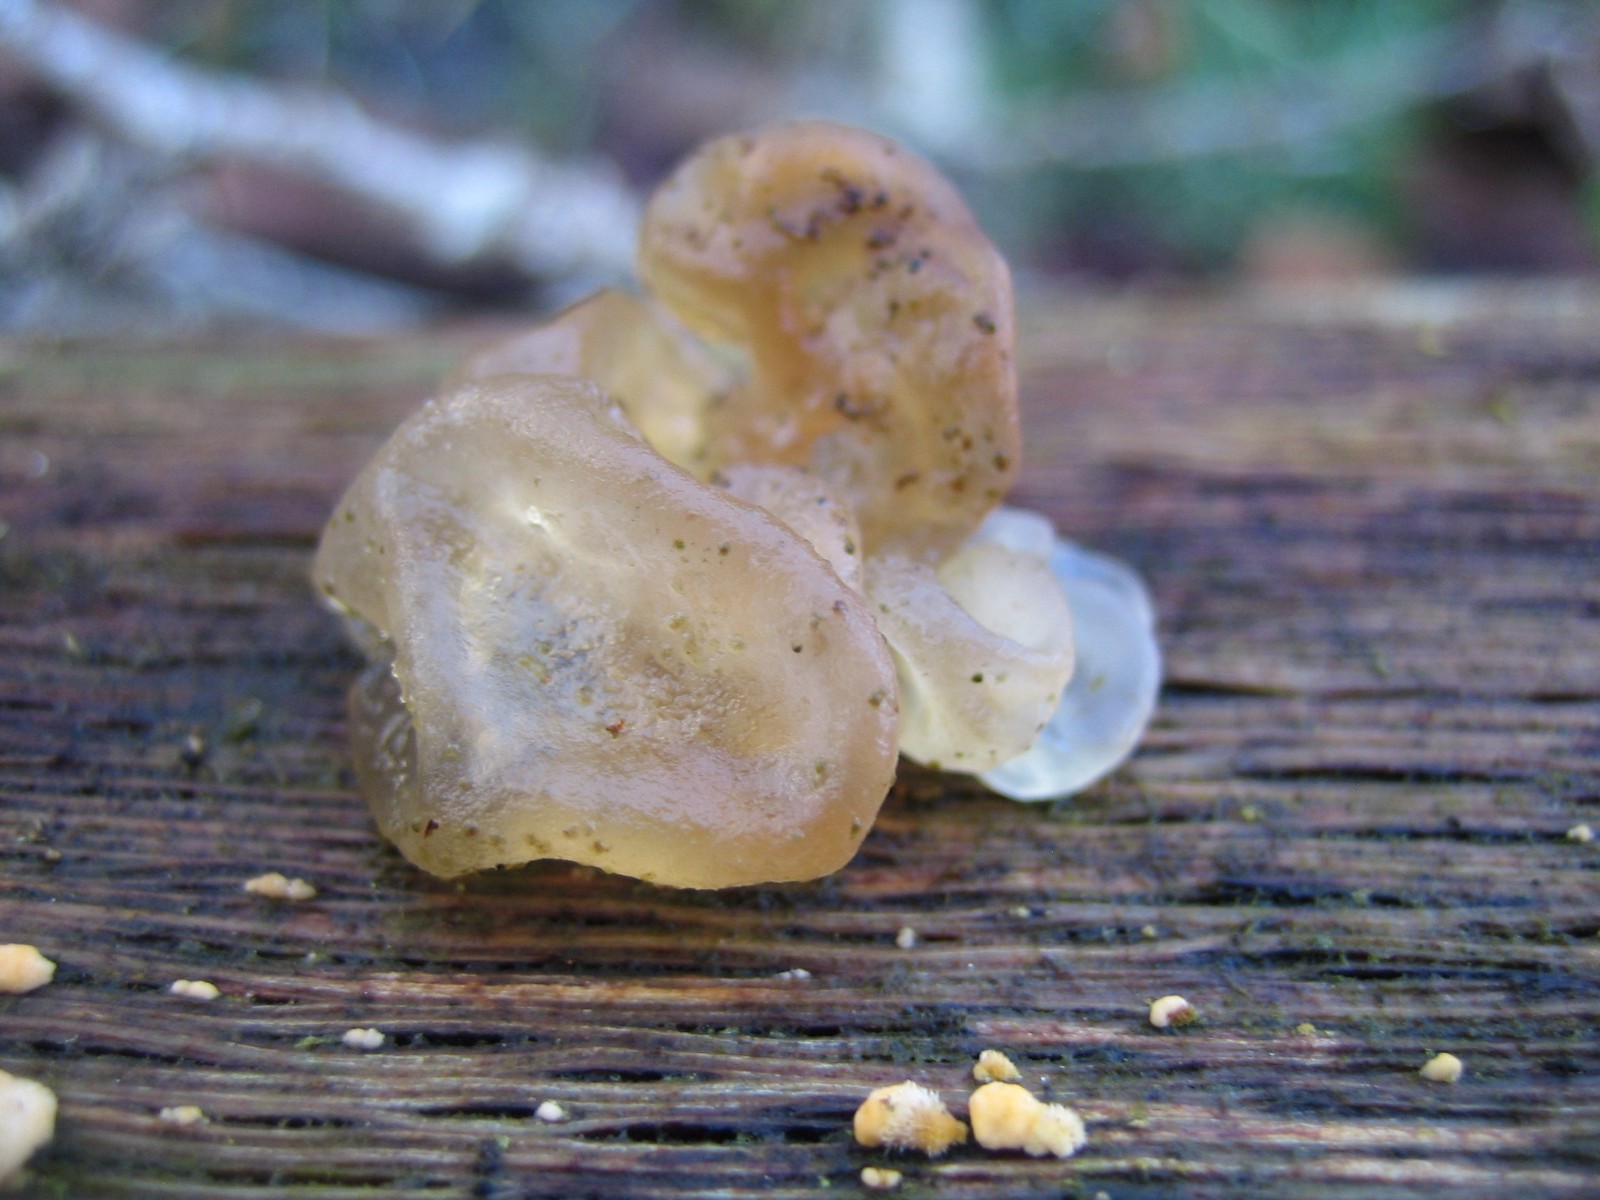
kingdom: Fungi
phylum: Basidiomycota
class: Agaricomycetes
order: Auriculariales
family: Hyaloriaceae
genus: Myxarium
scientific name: Myxarium nucleatum
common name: klar bævretop
